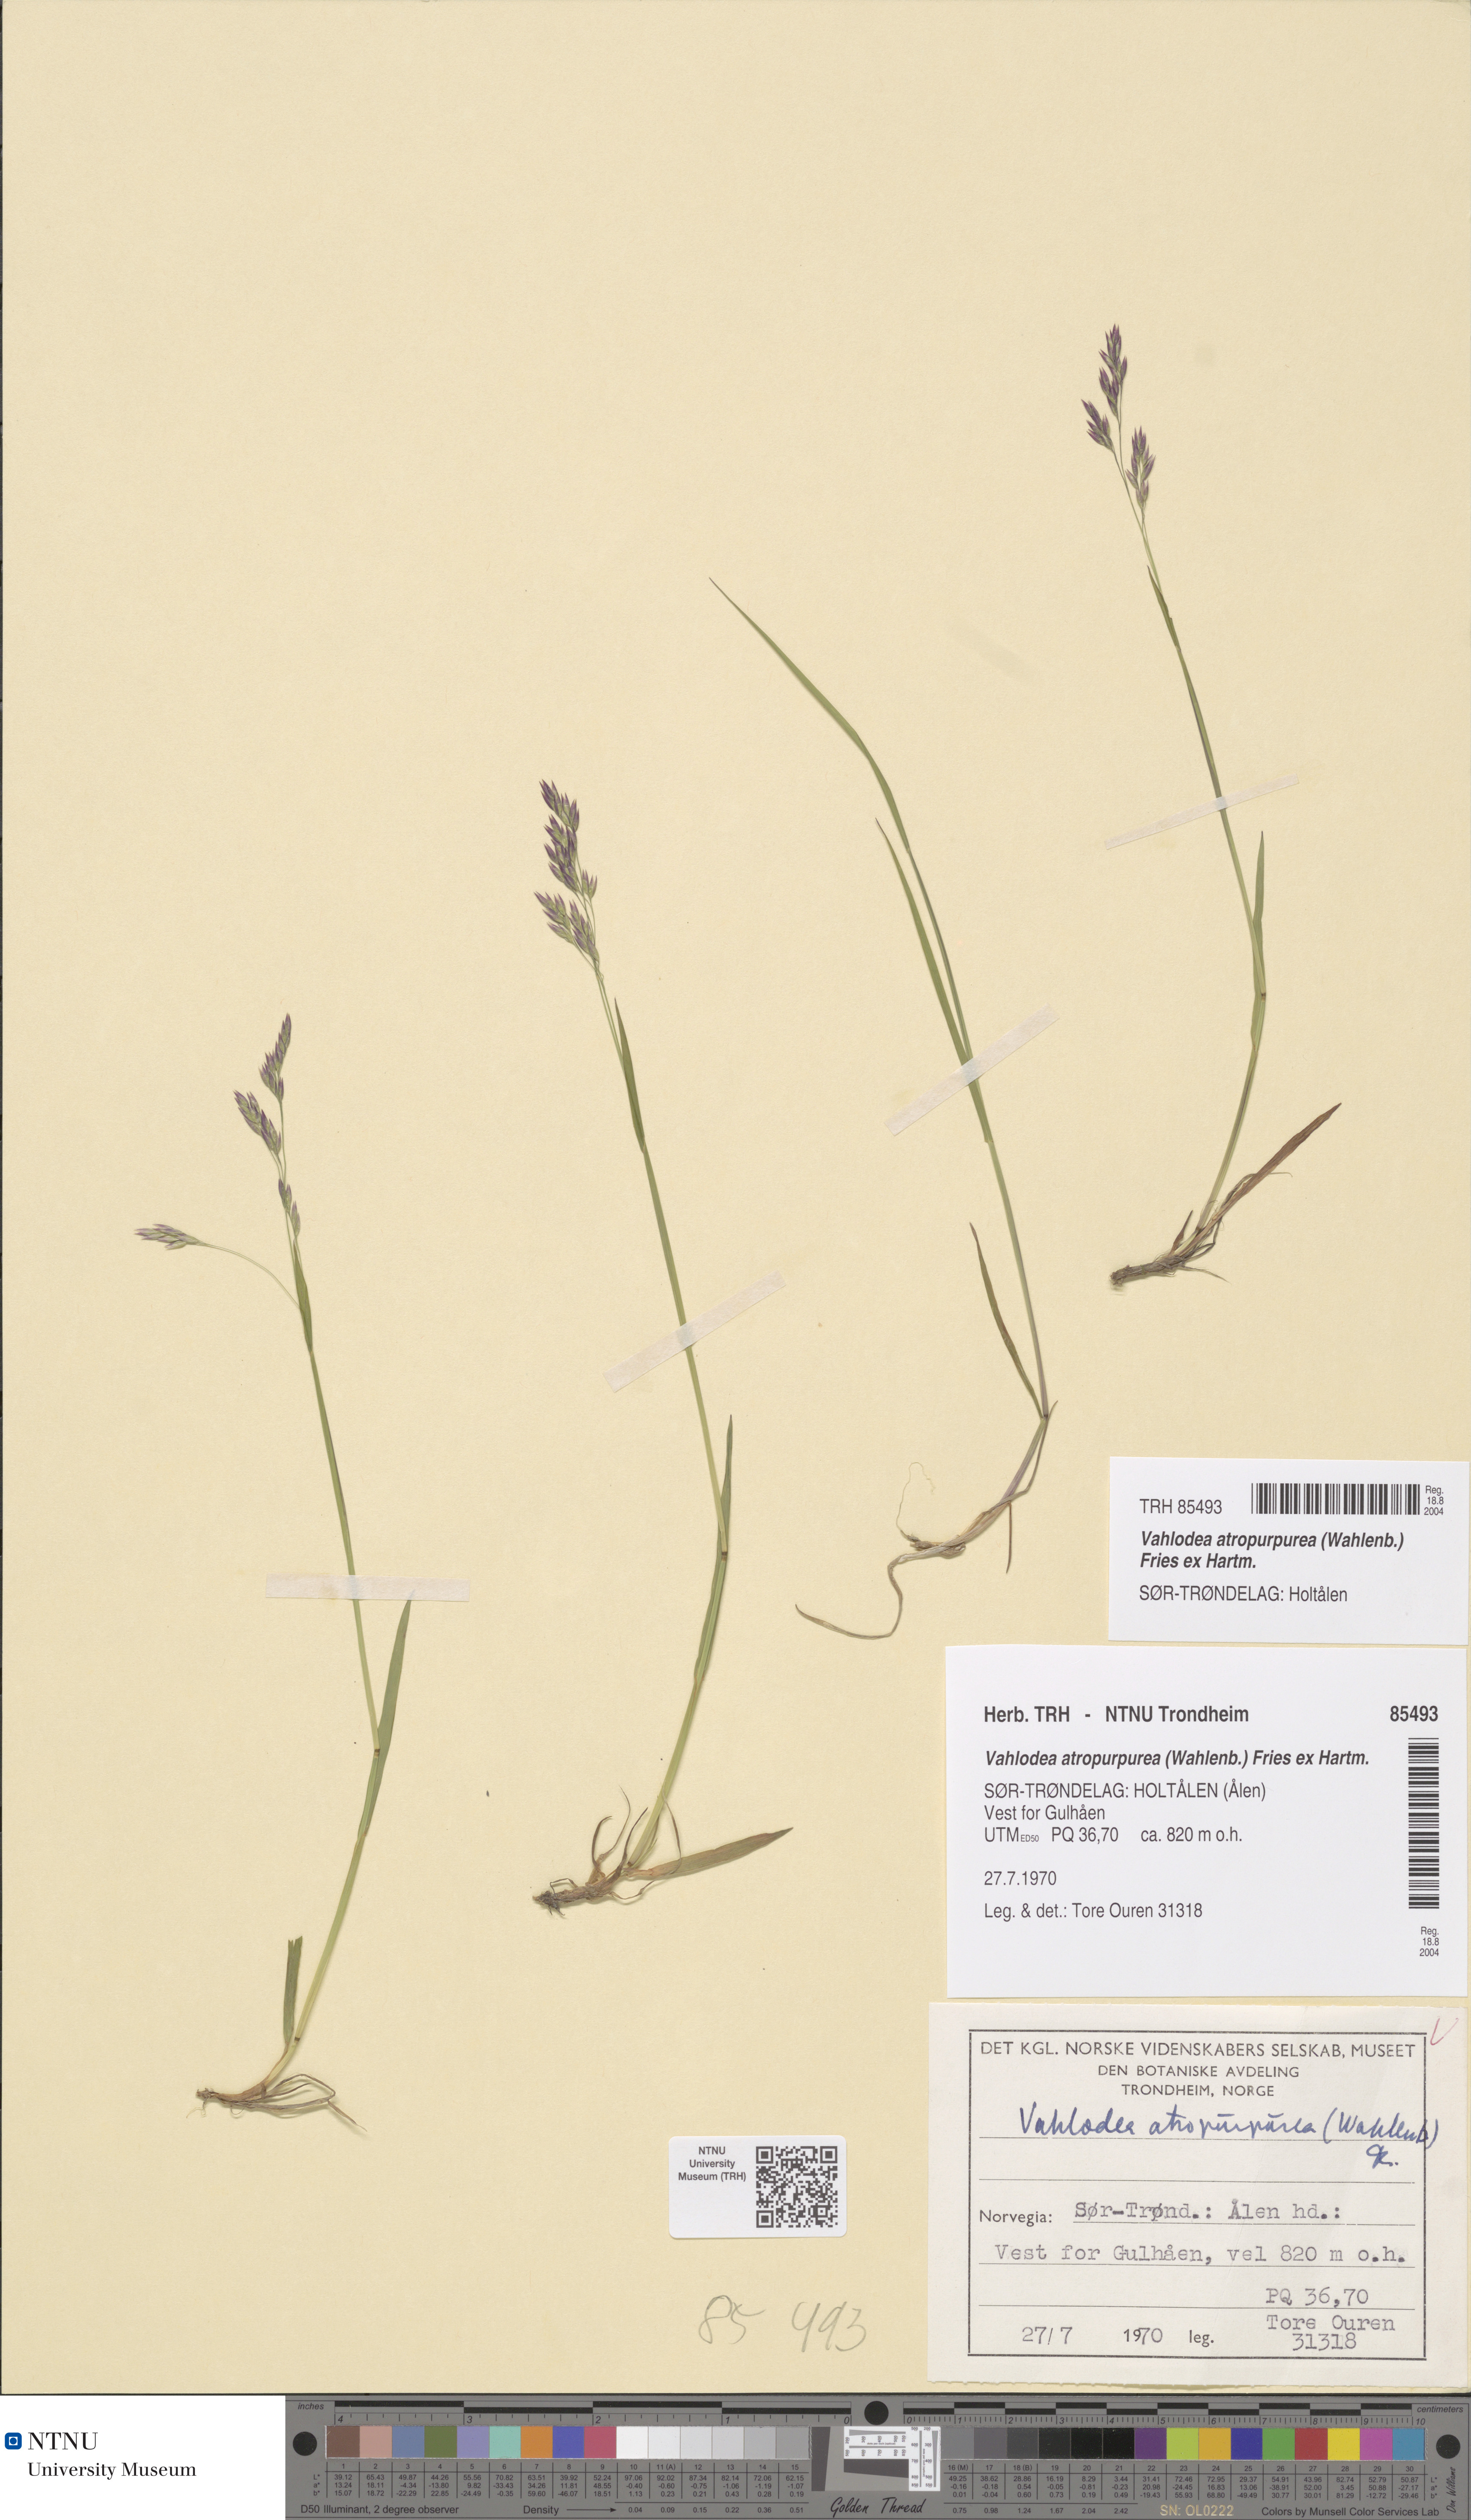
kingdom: Plantae
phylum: Tracheophyta
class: Liliopsida
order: Poales
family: Poaceae
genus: Vahlodea
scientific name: Vahlodea atropurpurea
